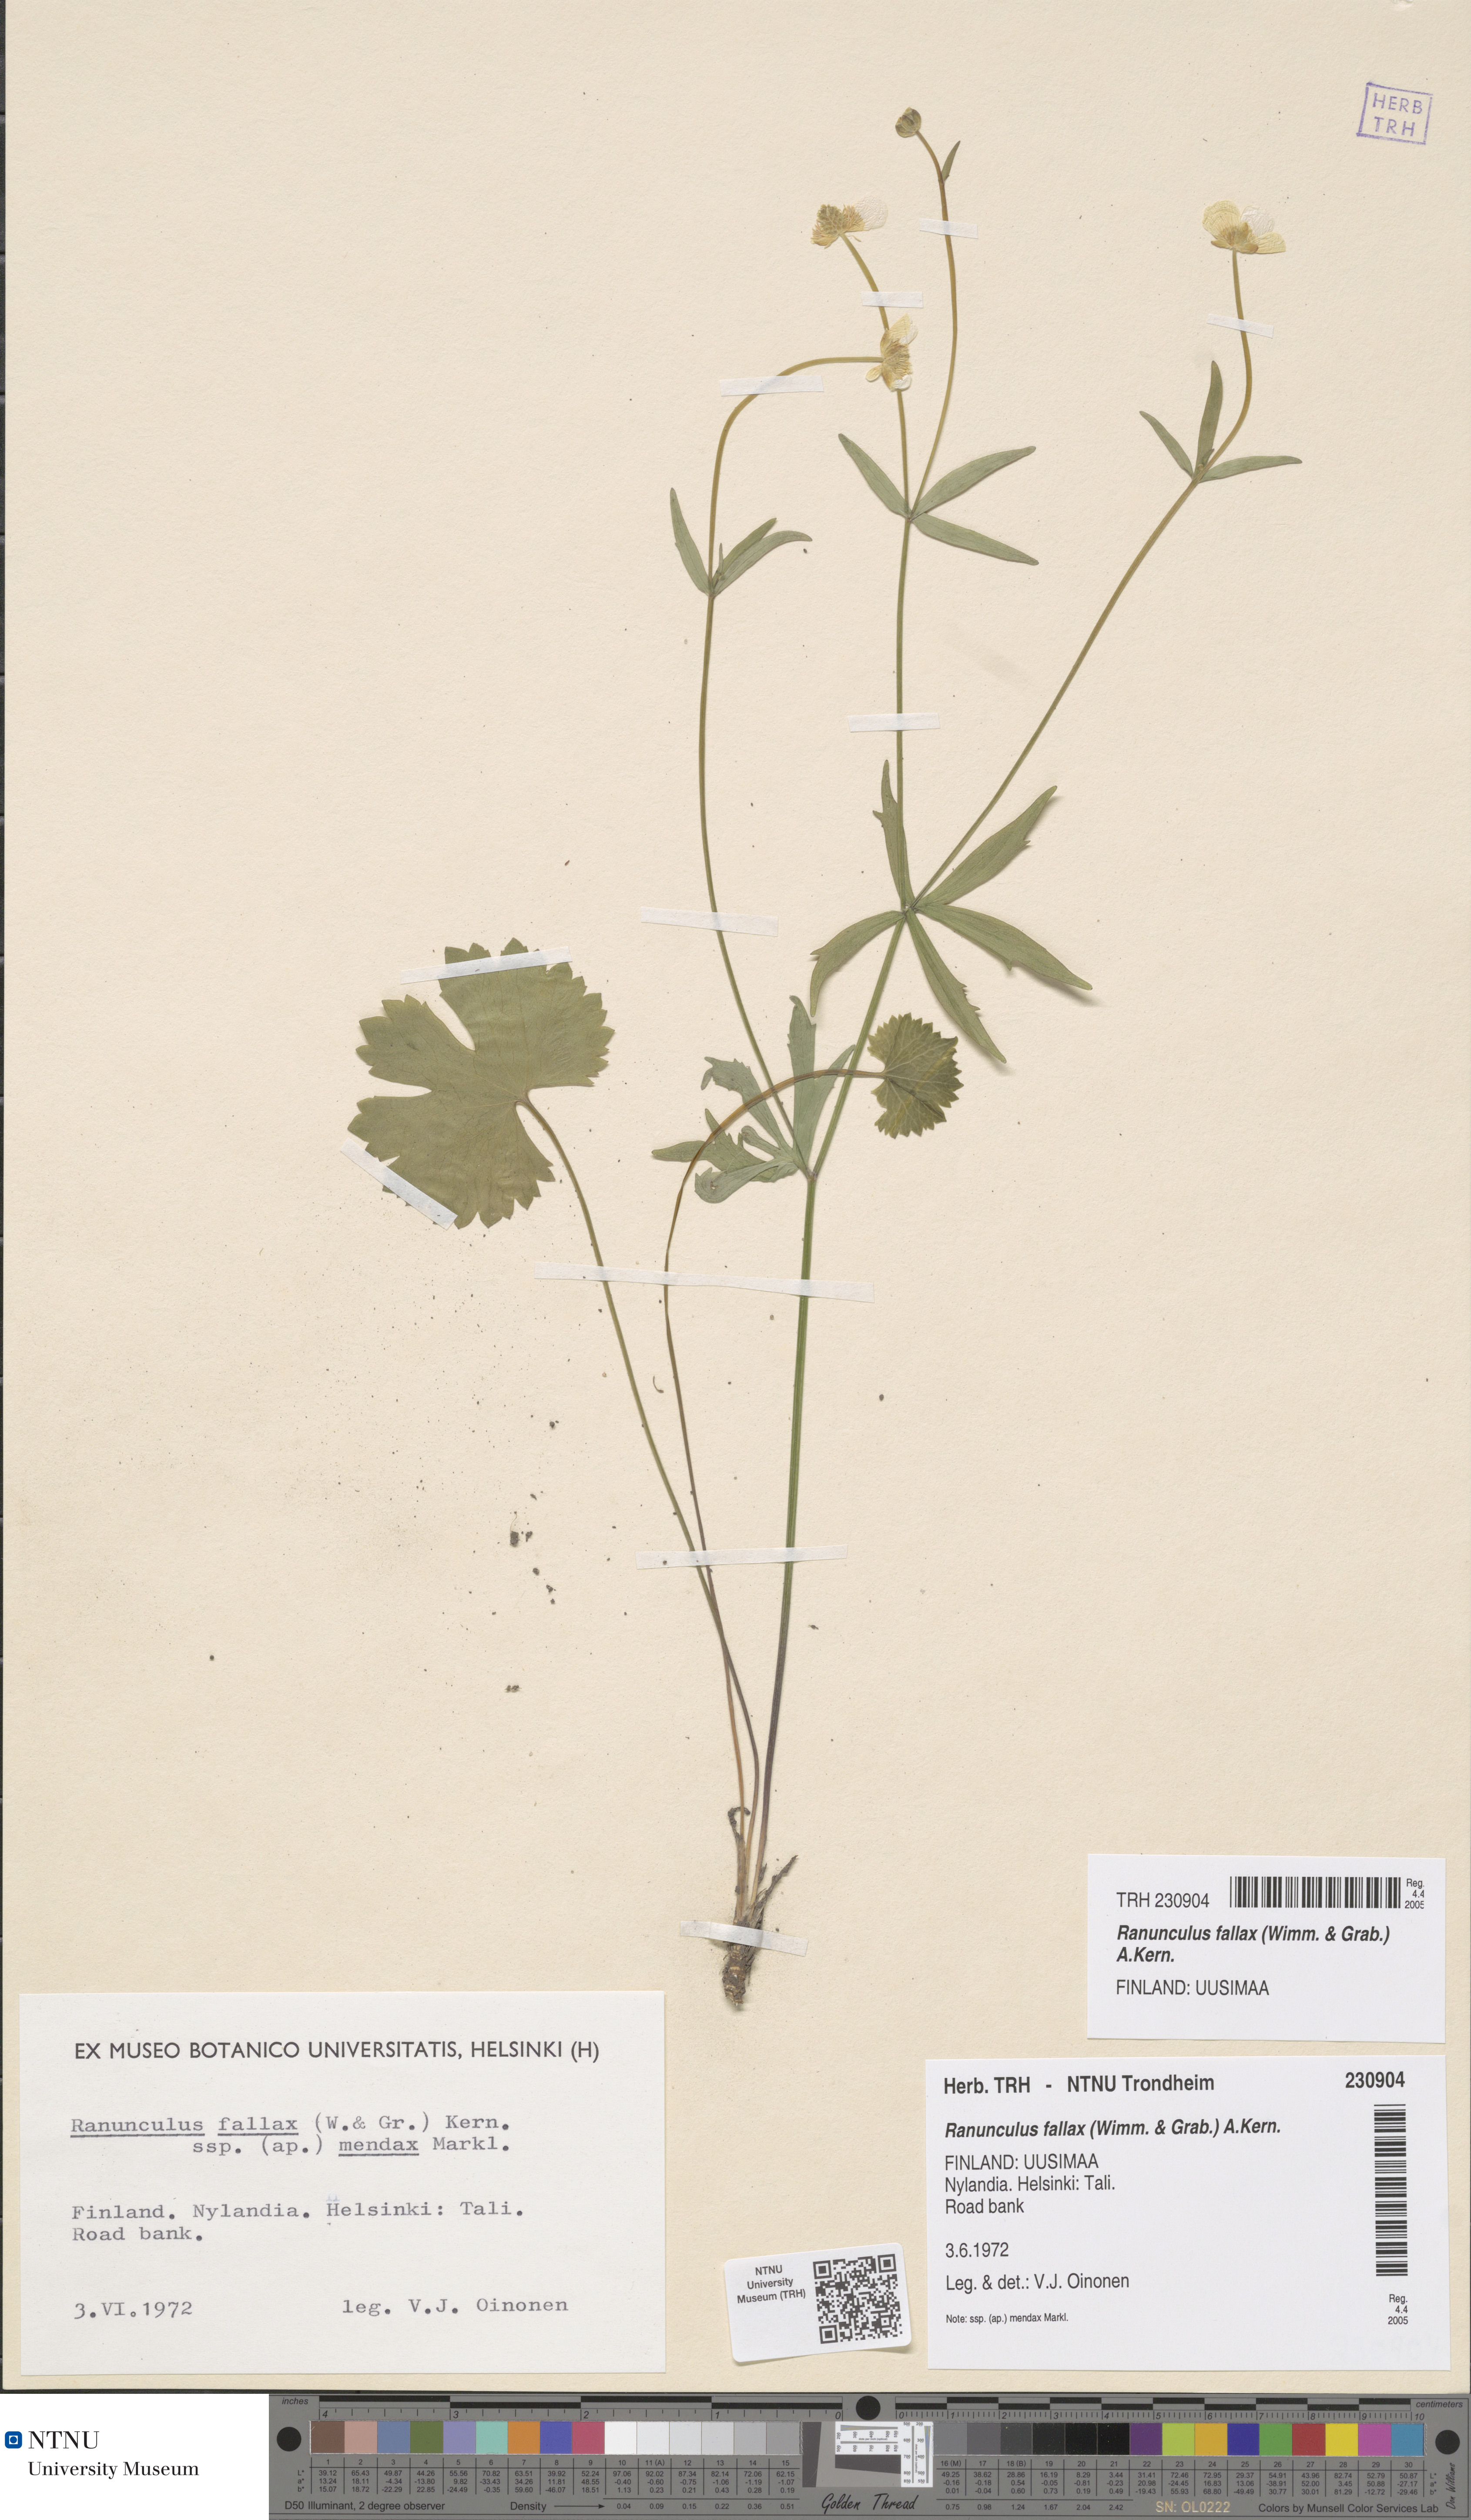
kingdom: Plantae
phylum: Tracheophyta
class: Magnoliopsida
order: Ranunculales
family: Ranunculaceae
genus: Ranunculus
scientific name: Ranunculus fallax
